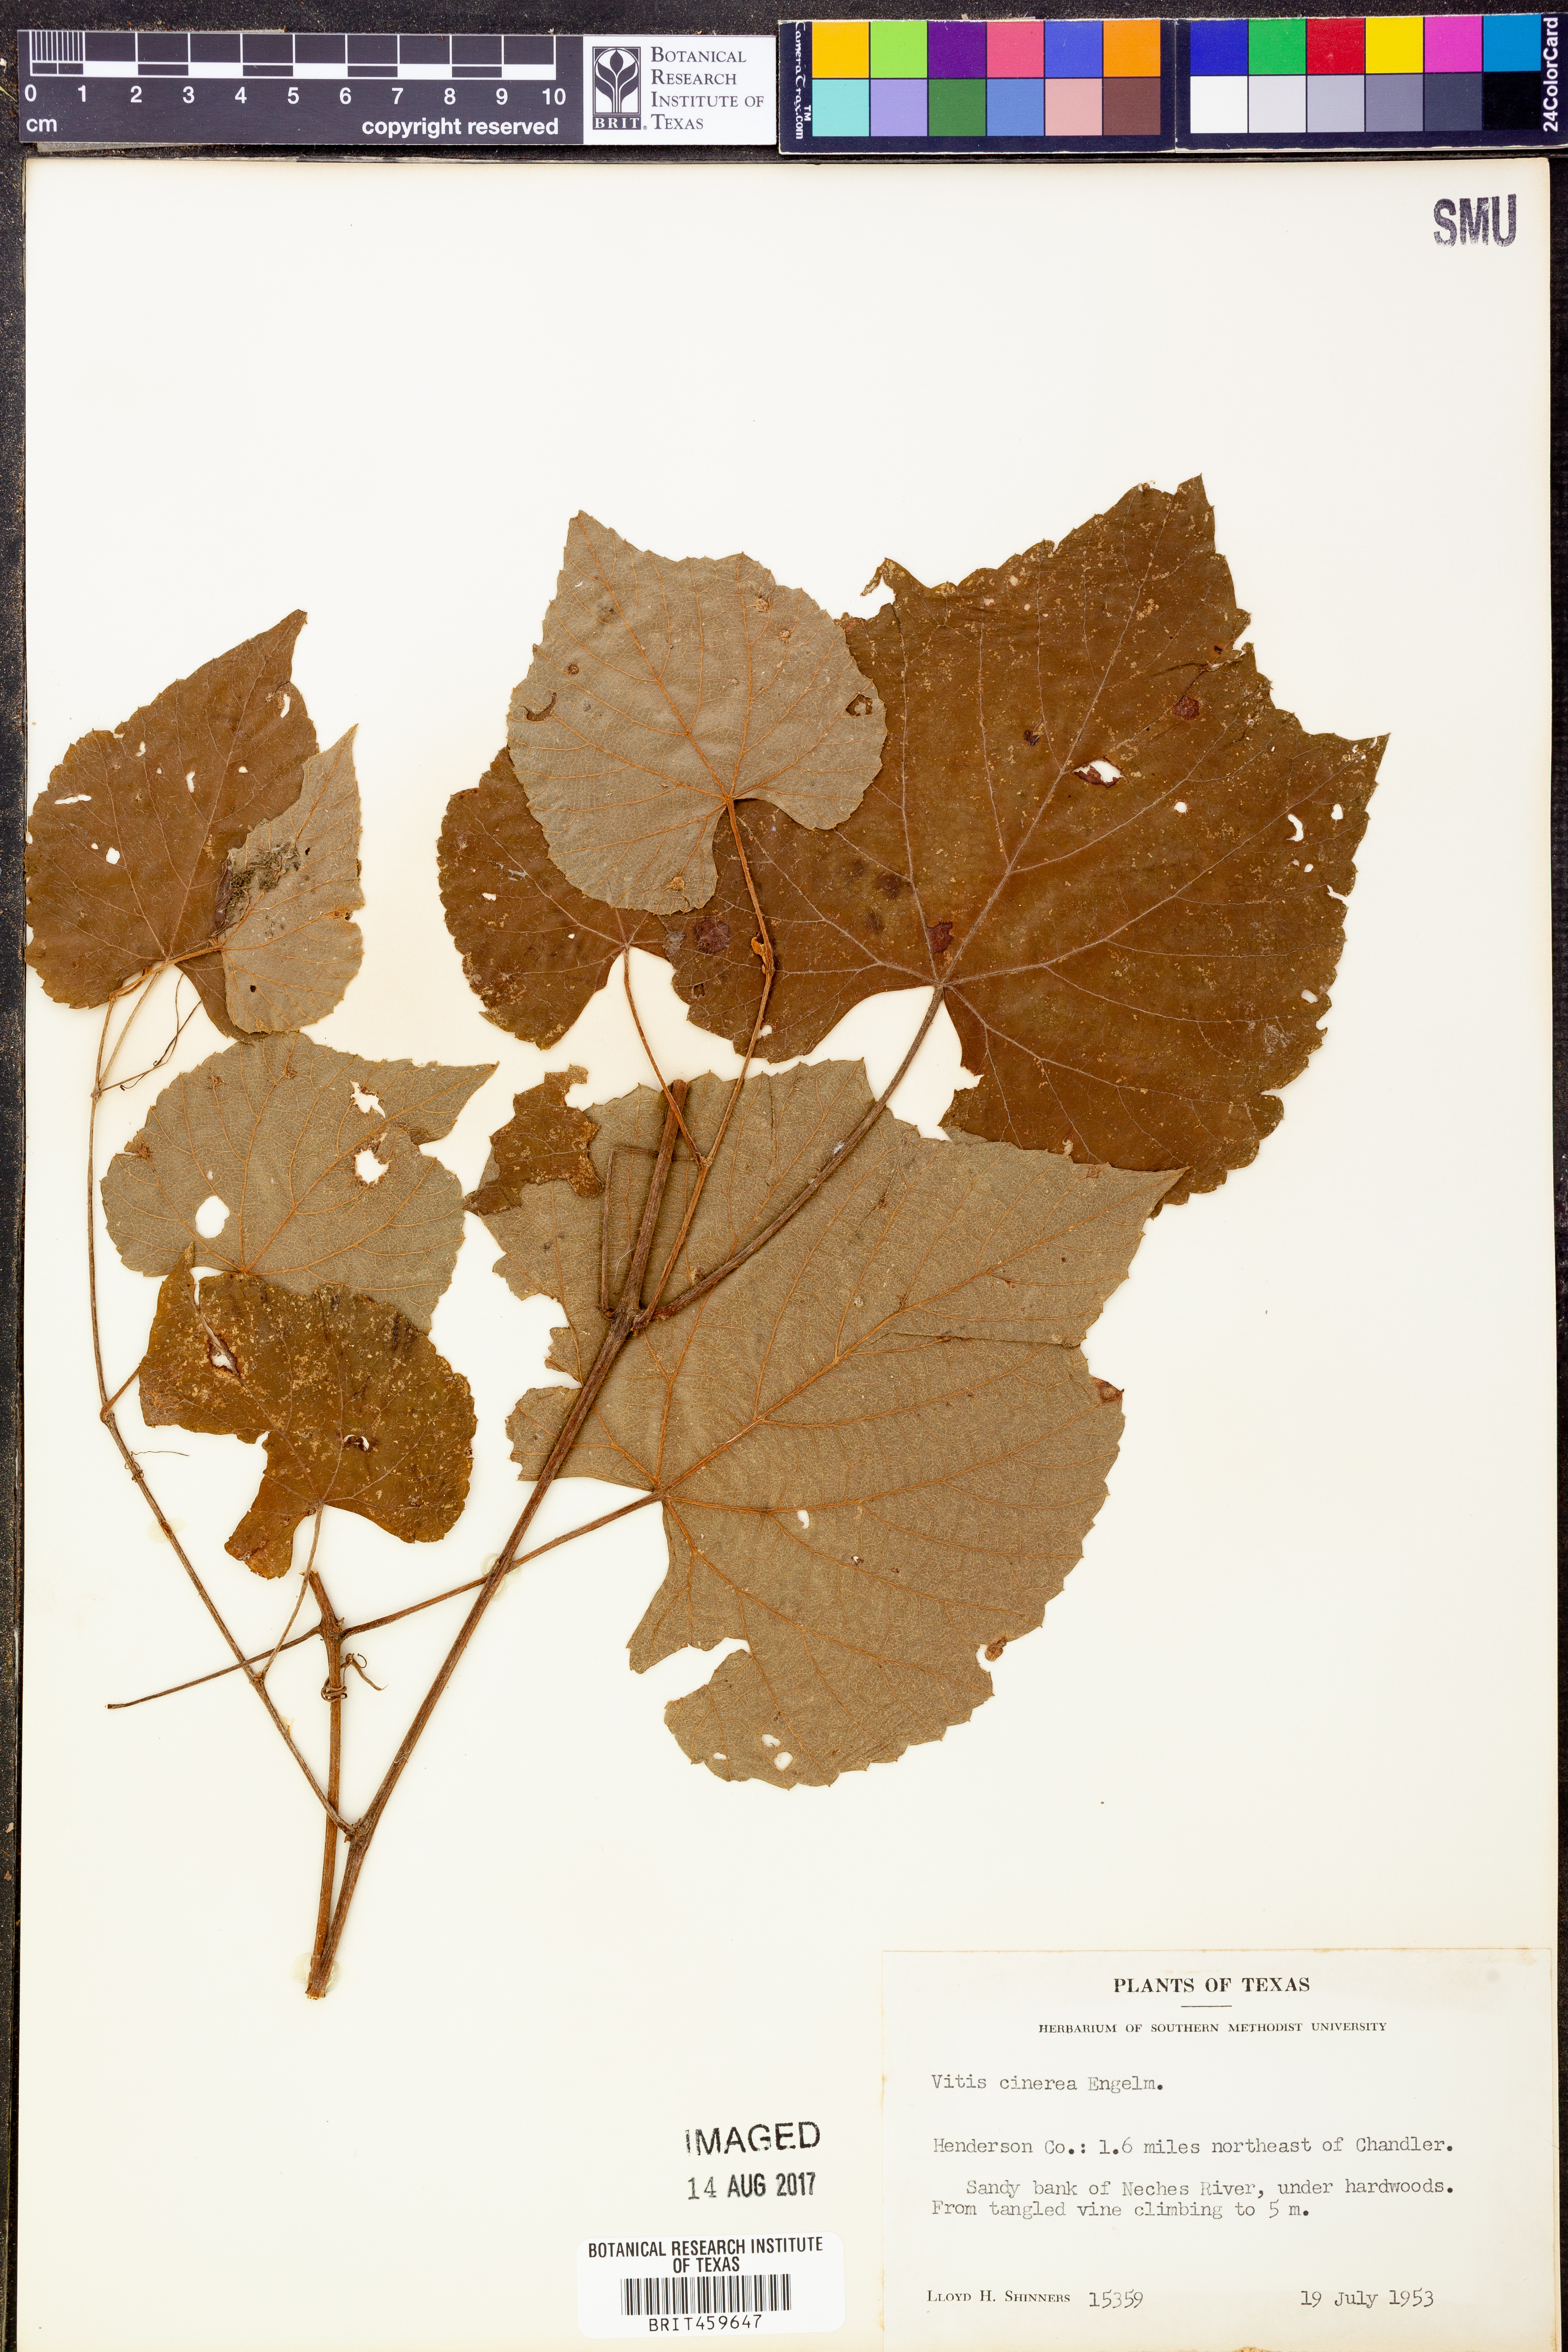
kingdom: Plantae
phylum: Tracheophyta
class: Magnoliopsida
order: Vitales
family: Vitaceae
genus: Vitis
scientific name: Vitis cinerea
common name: Ashy grape
